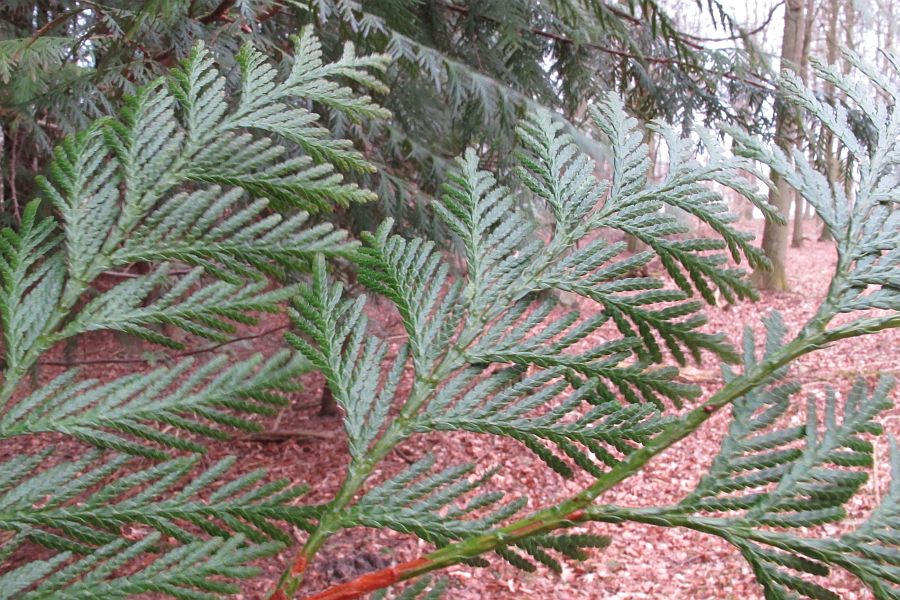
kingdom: Fungi
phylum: Basidiomycota
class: Agaricomycetes
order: Hymenochaetales
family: Rickenellaceae
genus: Resinicium
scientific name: Resinicium bicolor
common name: almindelig vokstand
